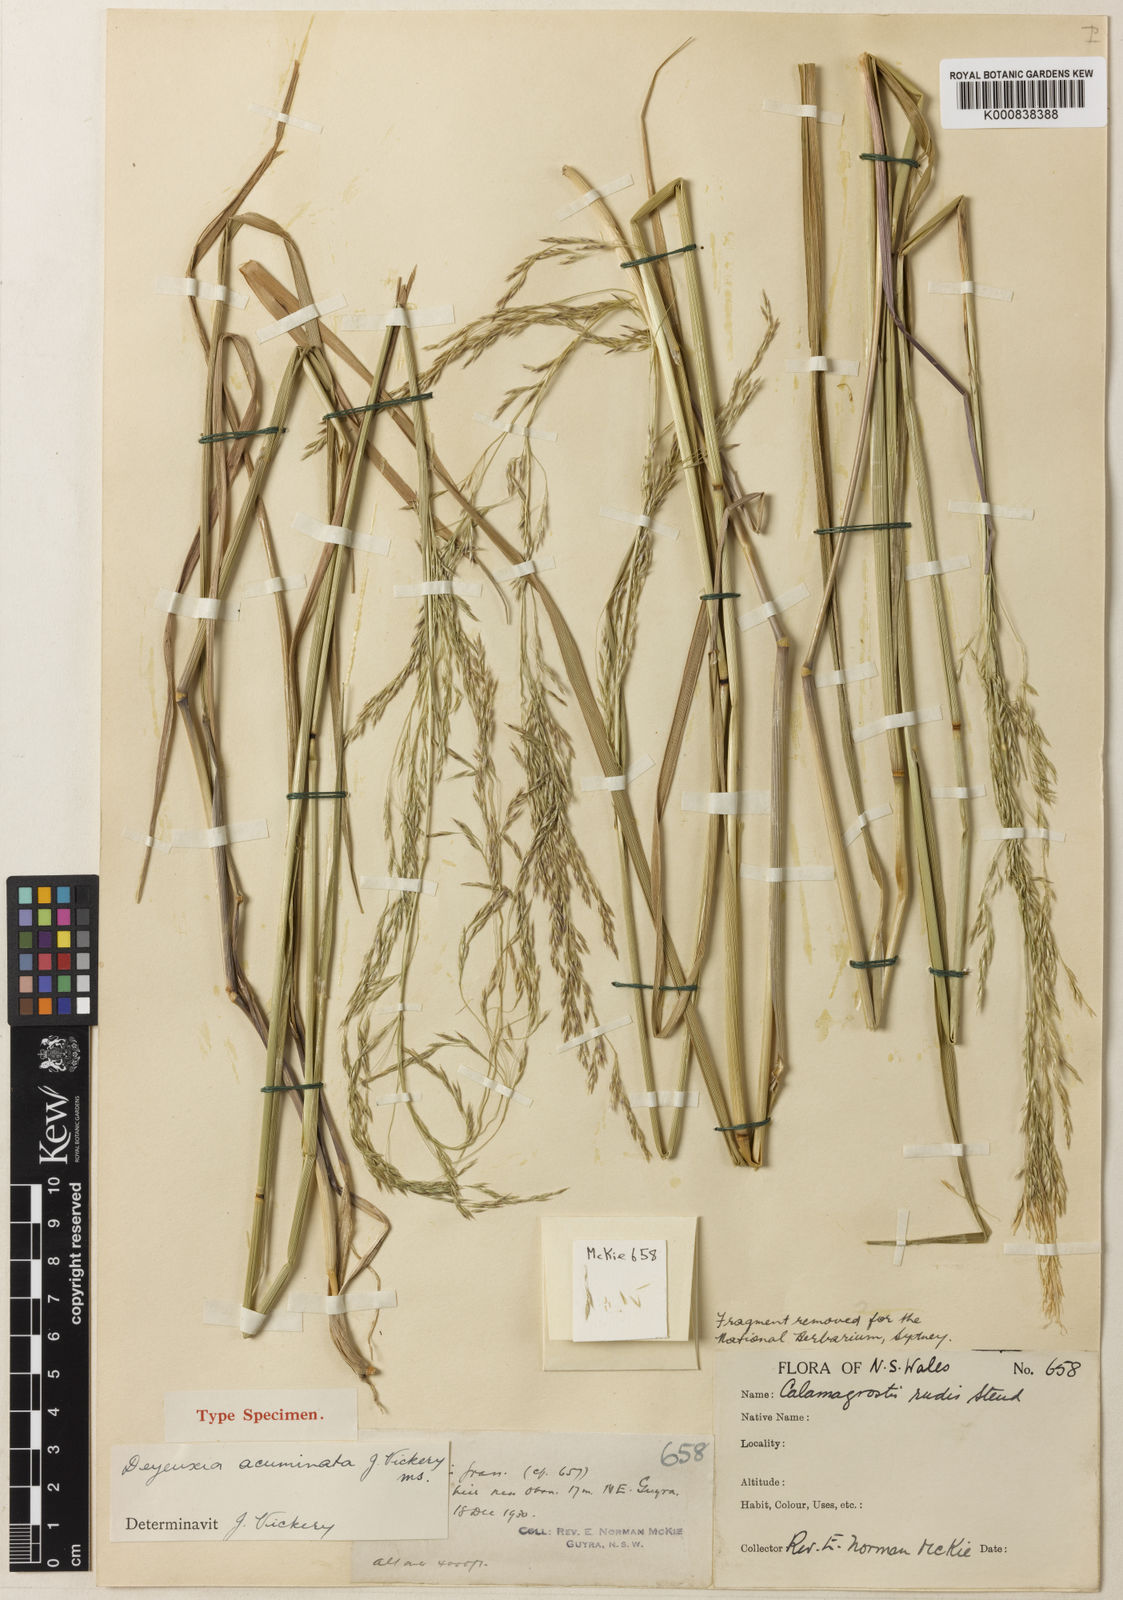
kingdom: Plantae
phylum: Tracheophyta
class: Liliopsida
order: Poales
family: Poaceae
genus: Calamagrostis
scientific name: Calamagrostis acuminata
